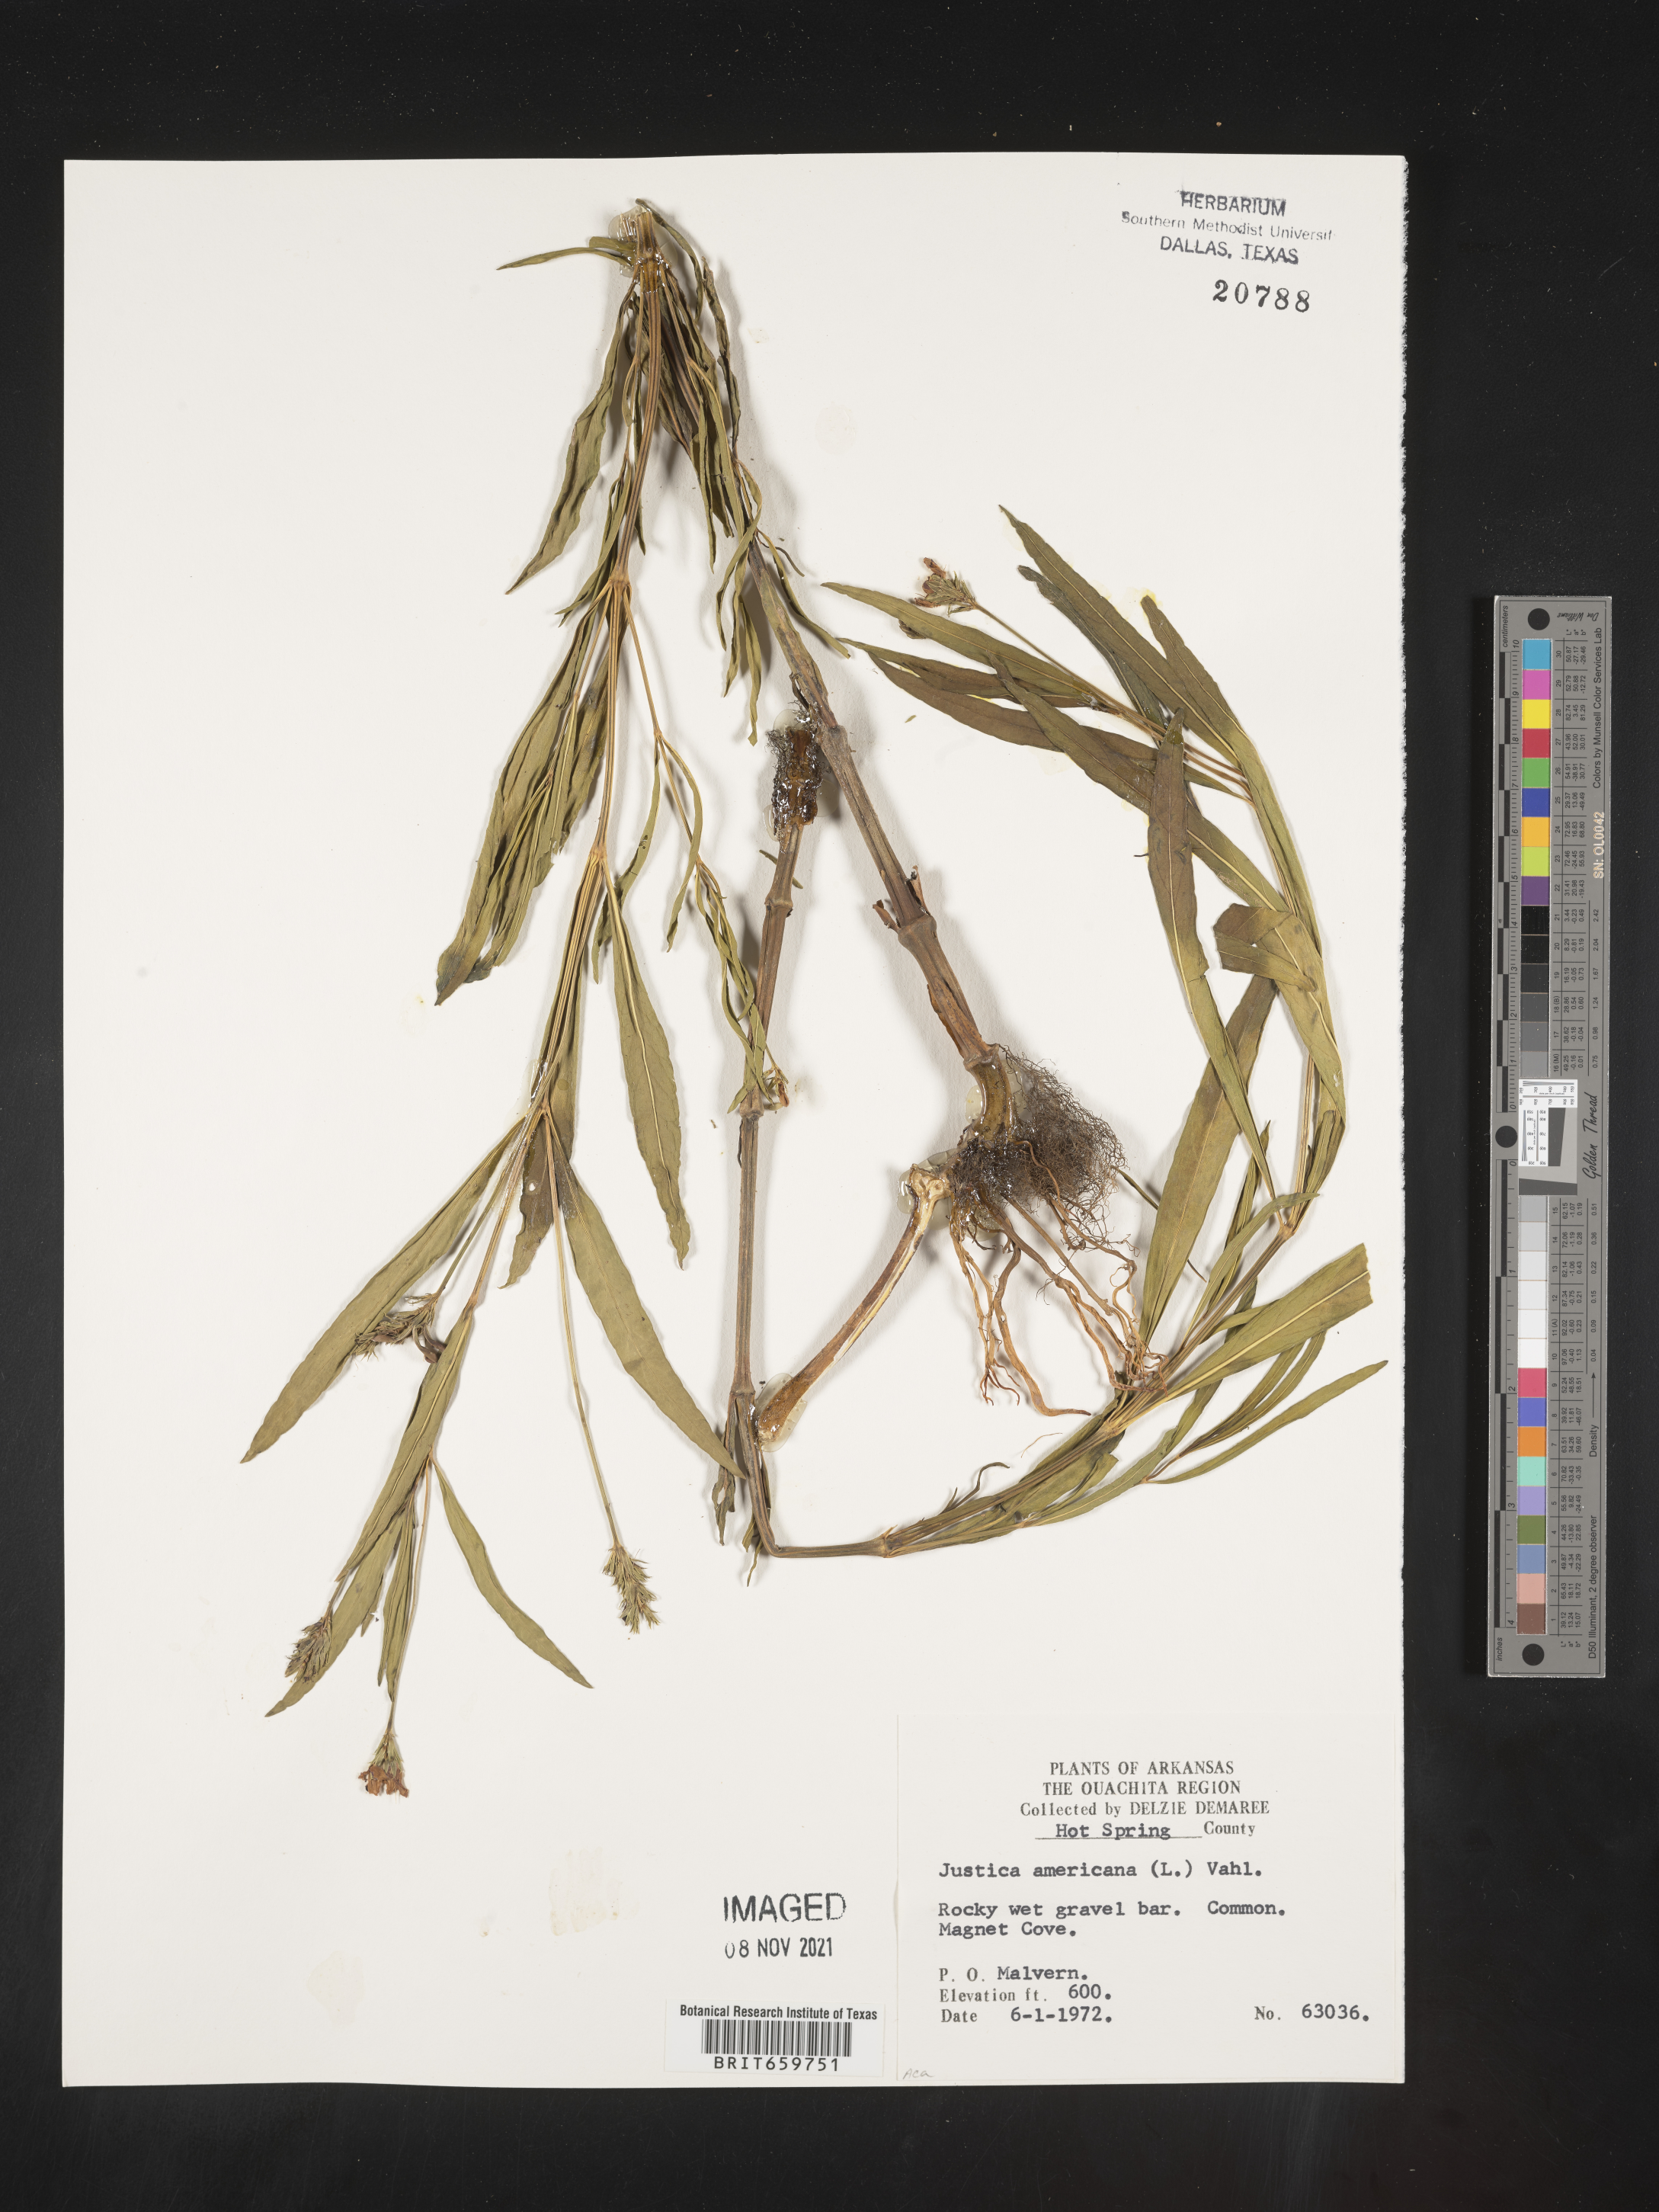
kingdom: Plantae
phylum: Tracheophyta
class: Magnoliopsida
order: Lamiales
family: Acanthaceae
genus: Dianthera
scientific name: Dianthera americana
